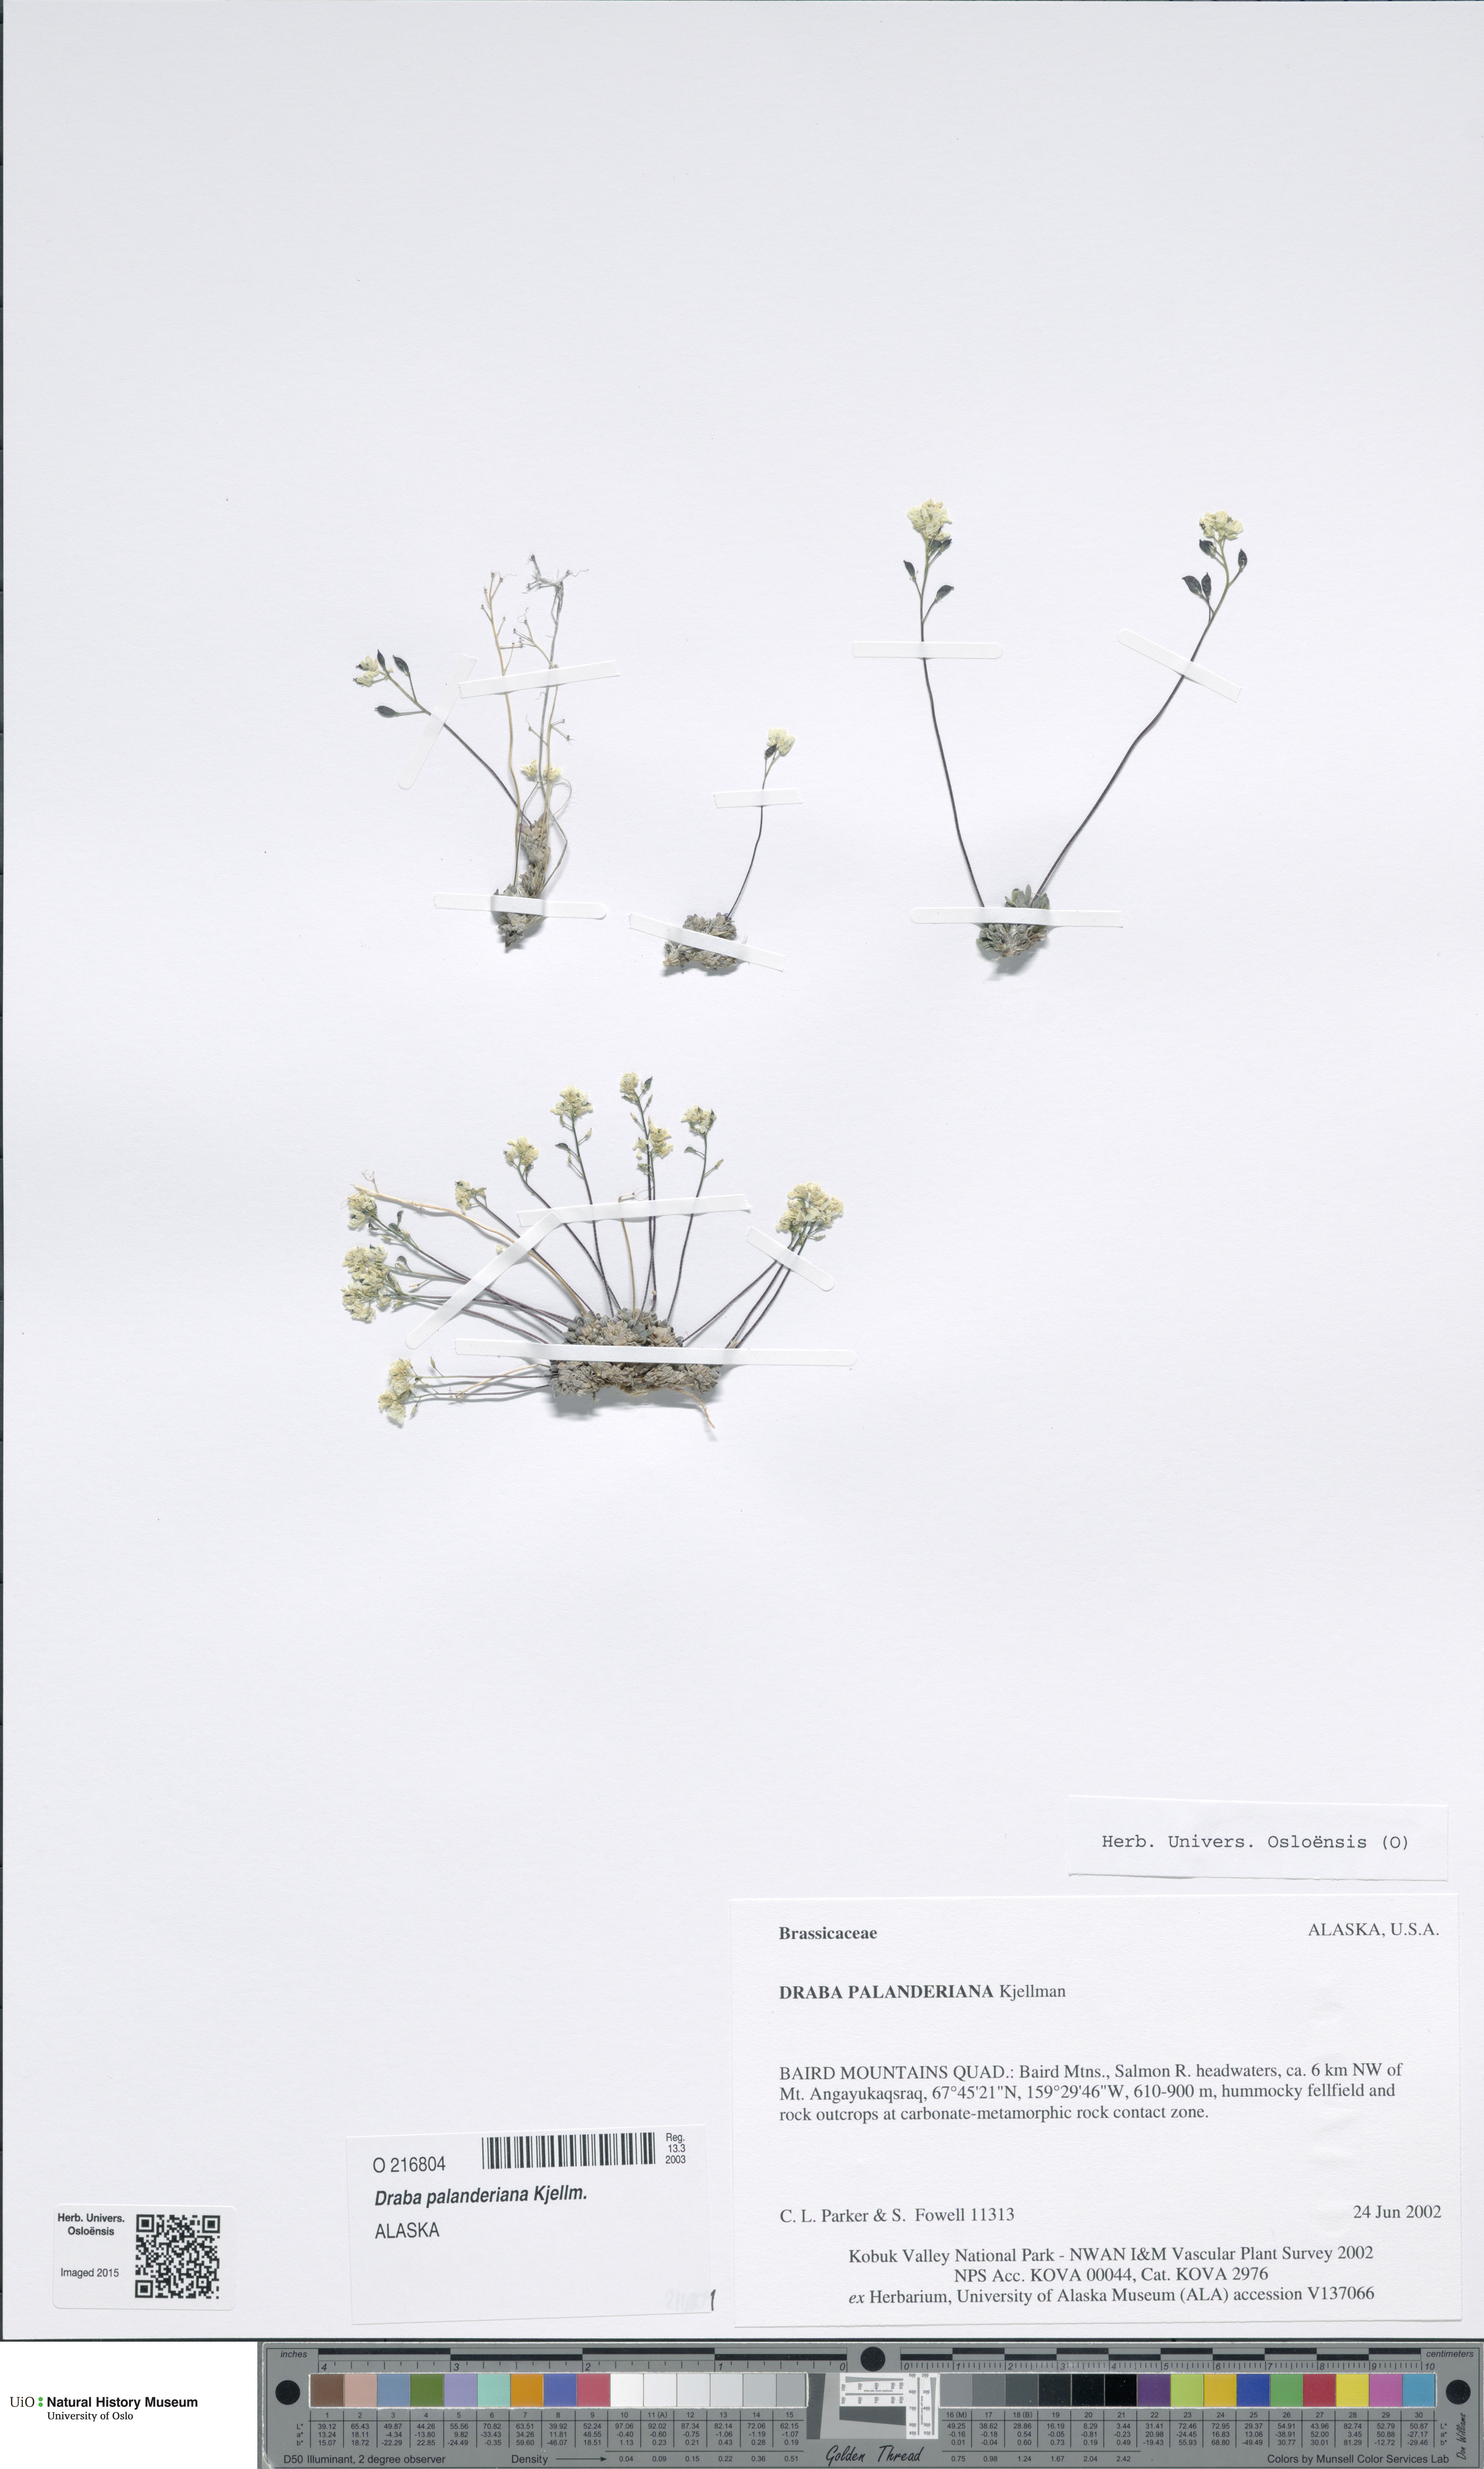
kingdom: Plantae
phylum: Tracheophyta
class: Magnoliopsida
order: Brassicales
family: Brassicaceae
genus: Draba
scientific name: Draba palanderiana
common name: Palander's draba
